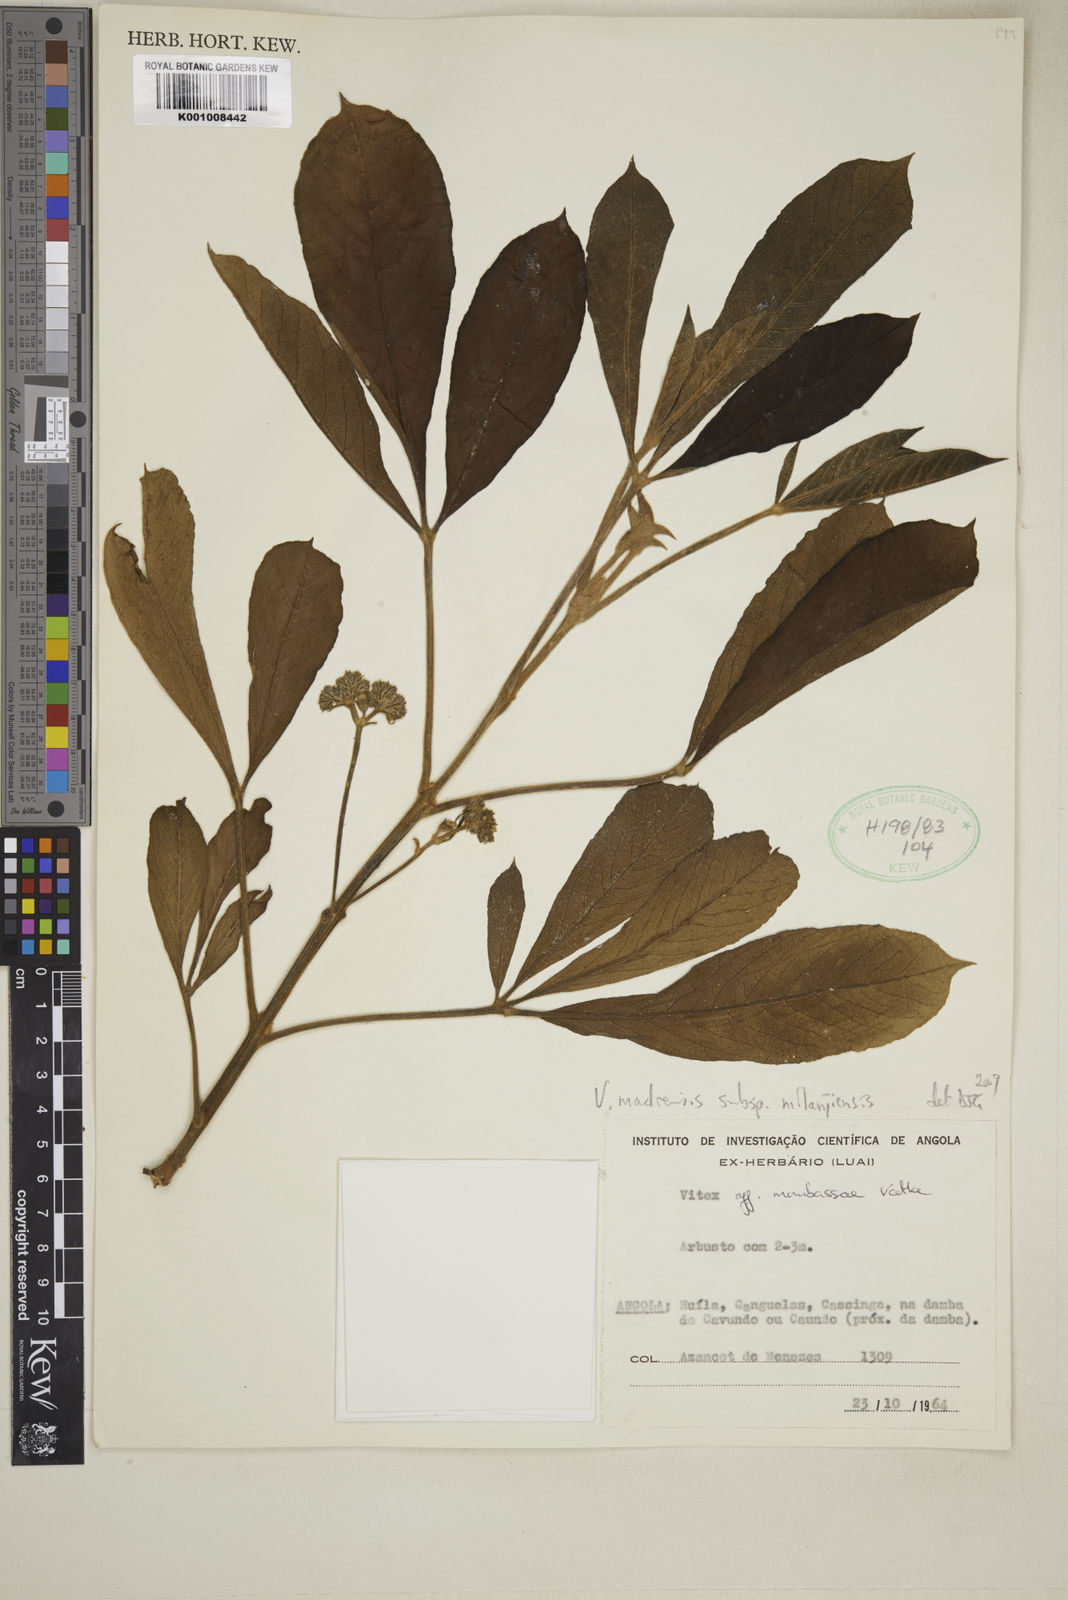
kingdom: Plantae
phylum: Tracheophyta
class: Magnoliopsida
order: Lamiales
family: Lamiaceae
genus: Vitex
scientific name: Vitex madiensis
